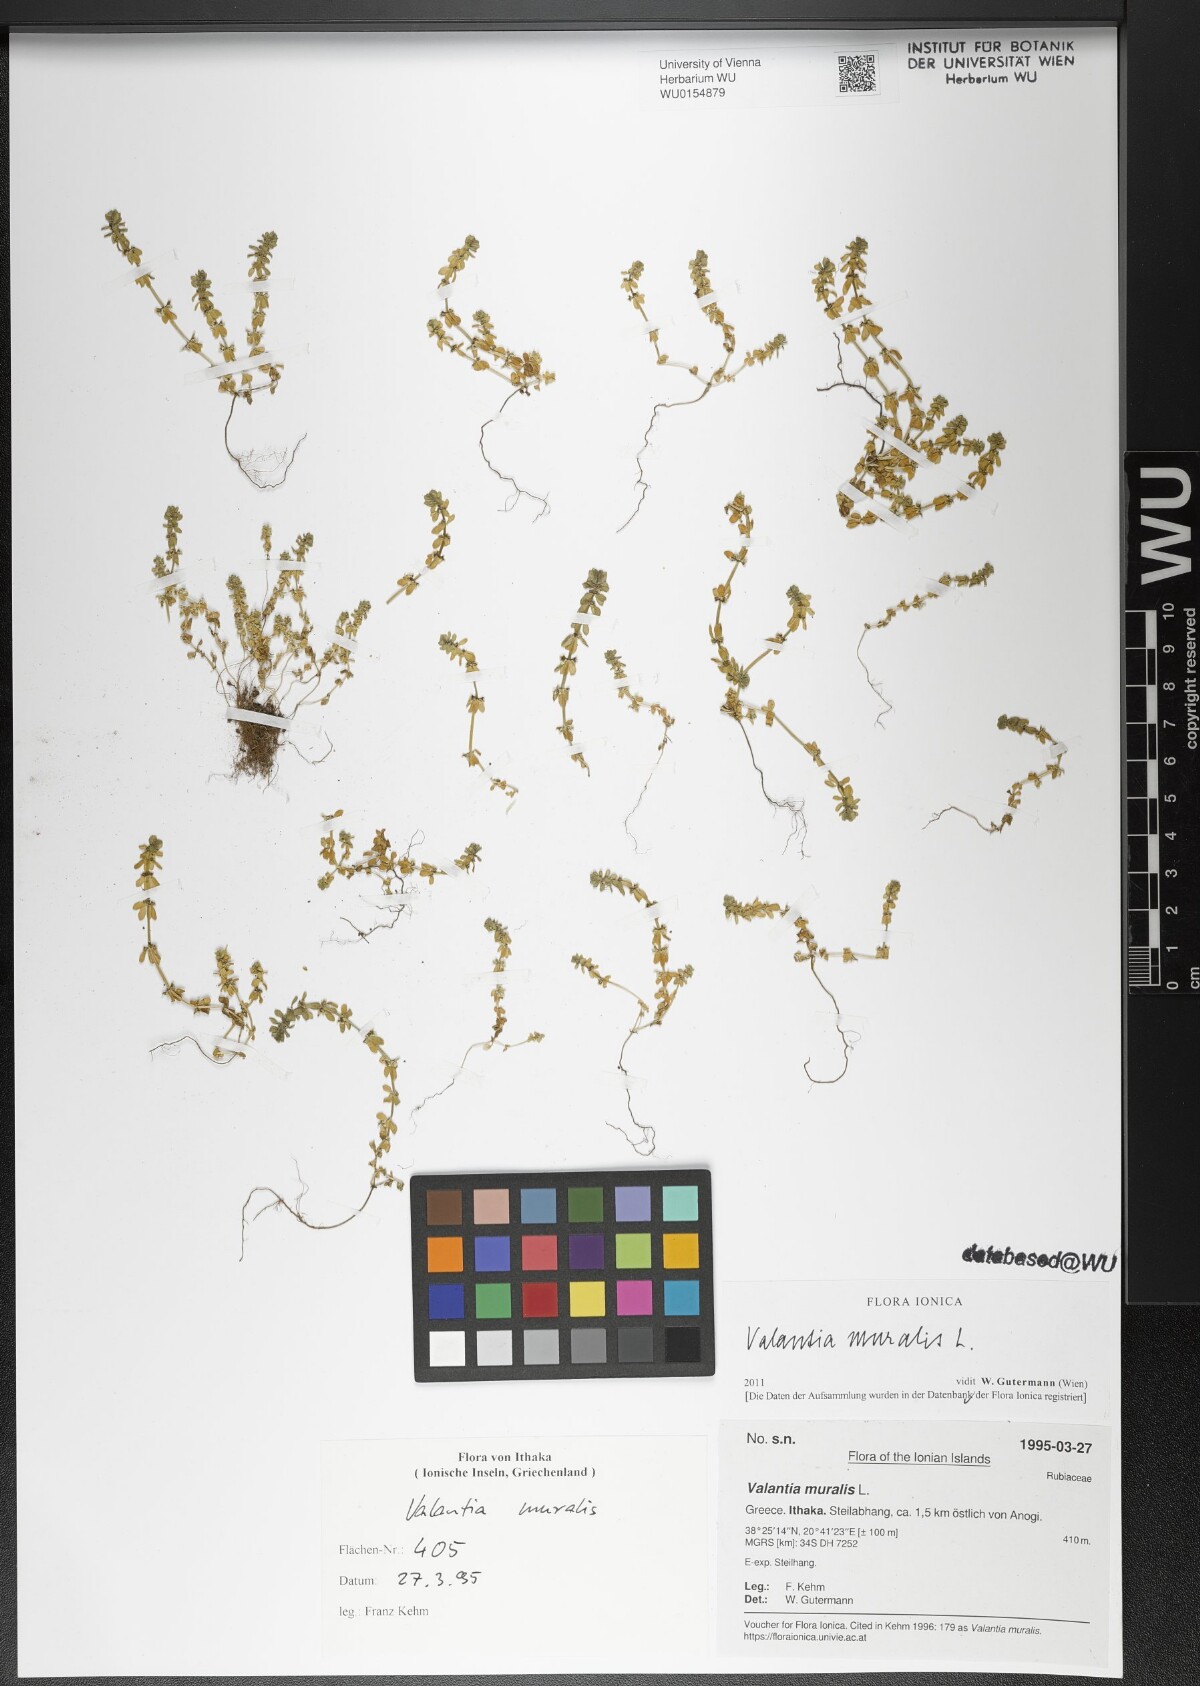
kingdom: Plantae
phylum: Tracheophyta
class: Magnoliopsida
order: Gentianales
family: Rubiaceae
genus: Valantia
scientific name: Valantia muralis
